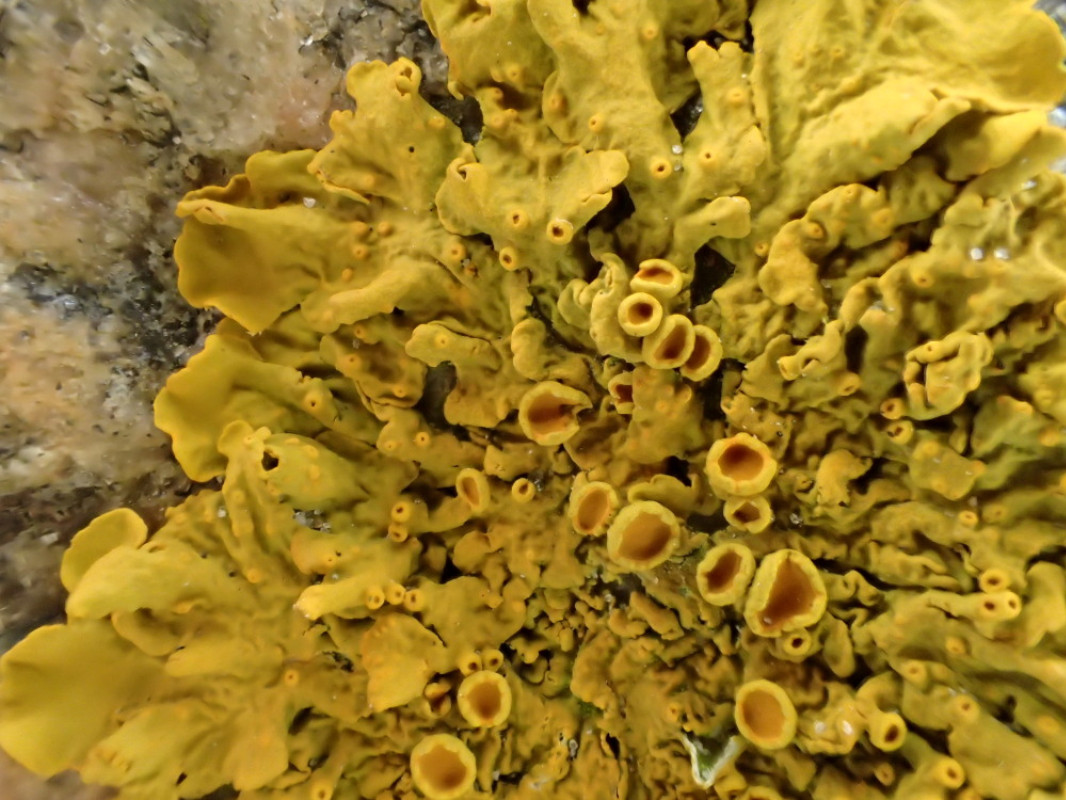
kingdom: Fungi
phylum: Ascomycota
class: Lecanoromycetes
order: Teloschistales
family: Teloschistaceae
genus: Xanthoria
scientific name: Xanthoria parietina
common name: almindelig væggelav
